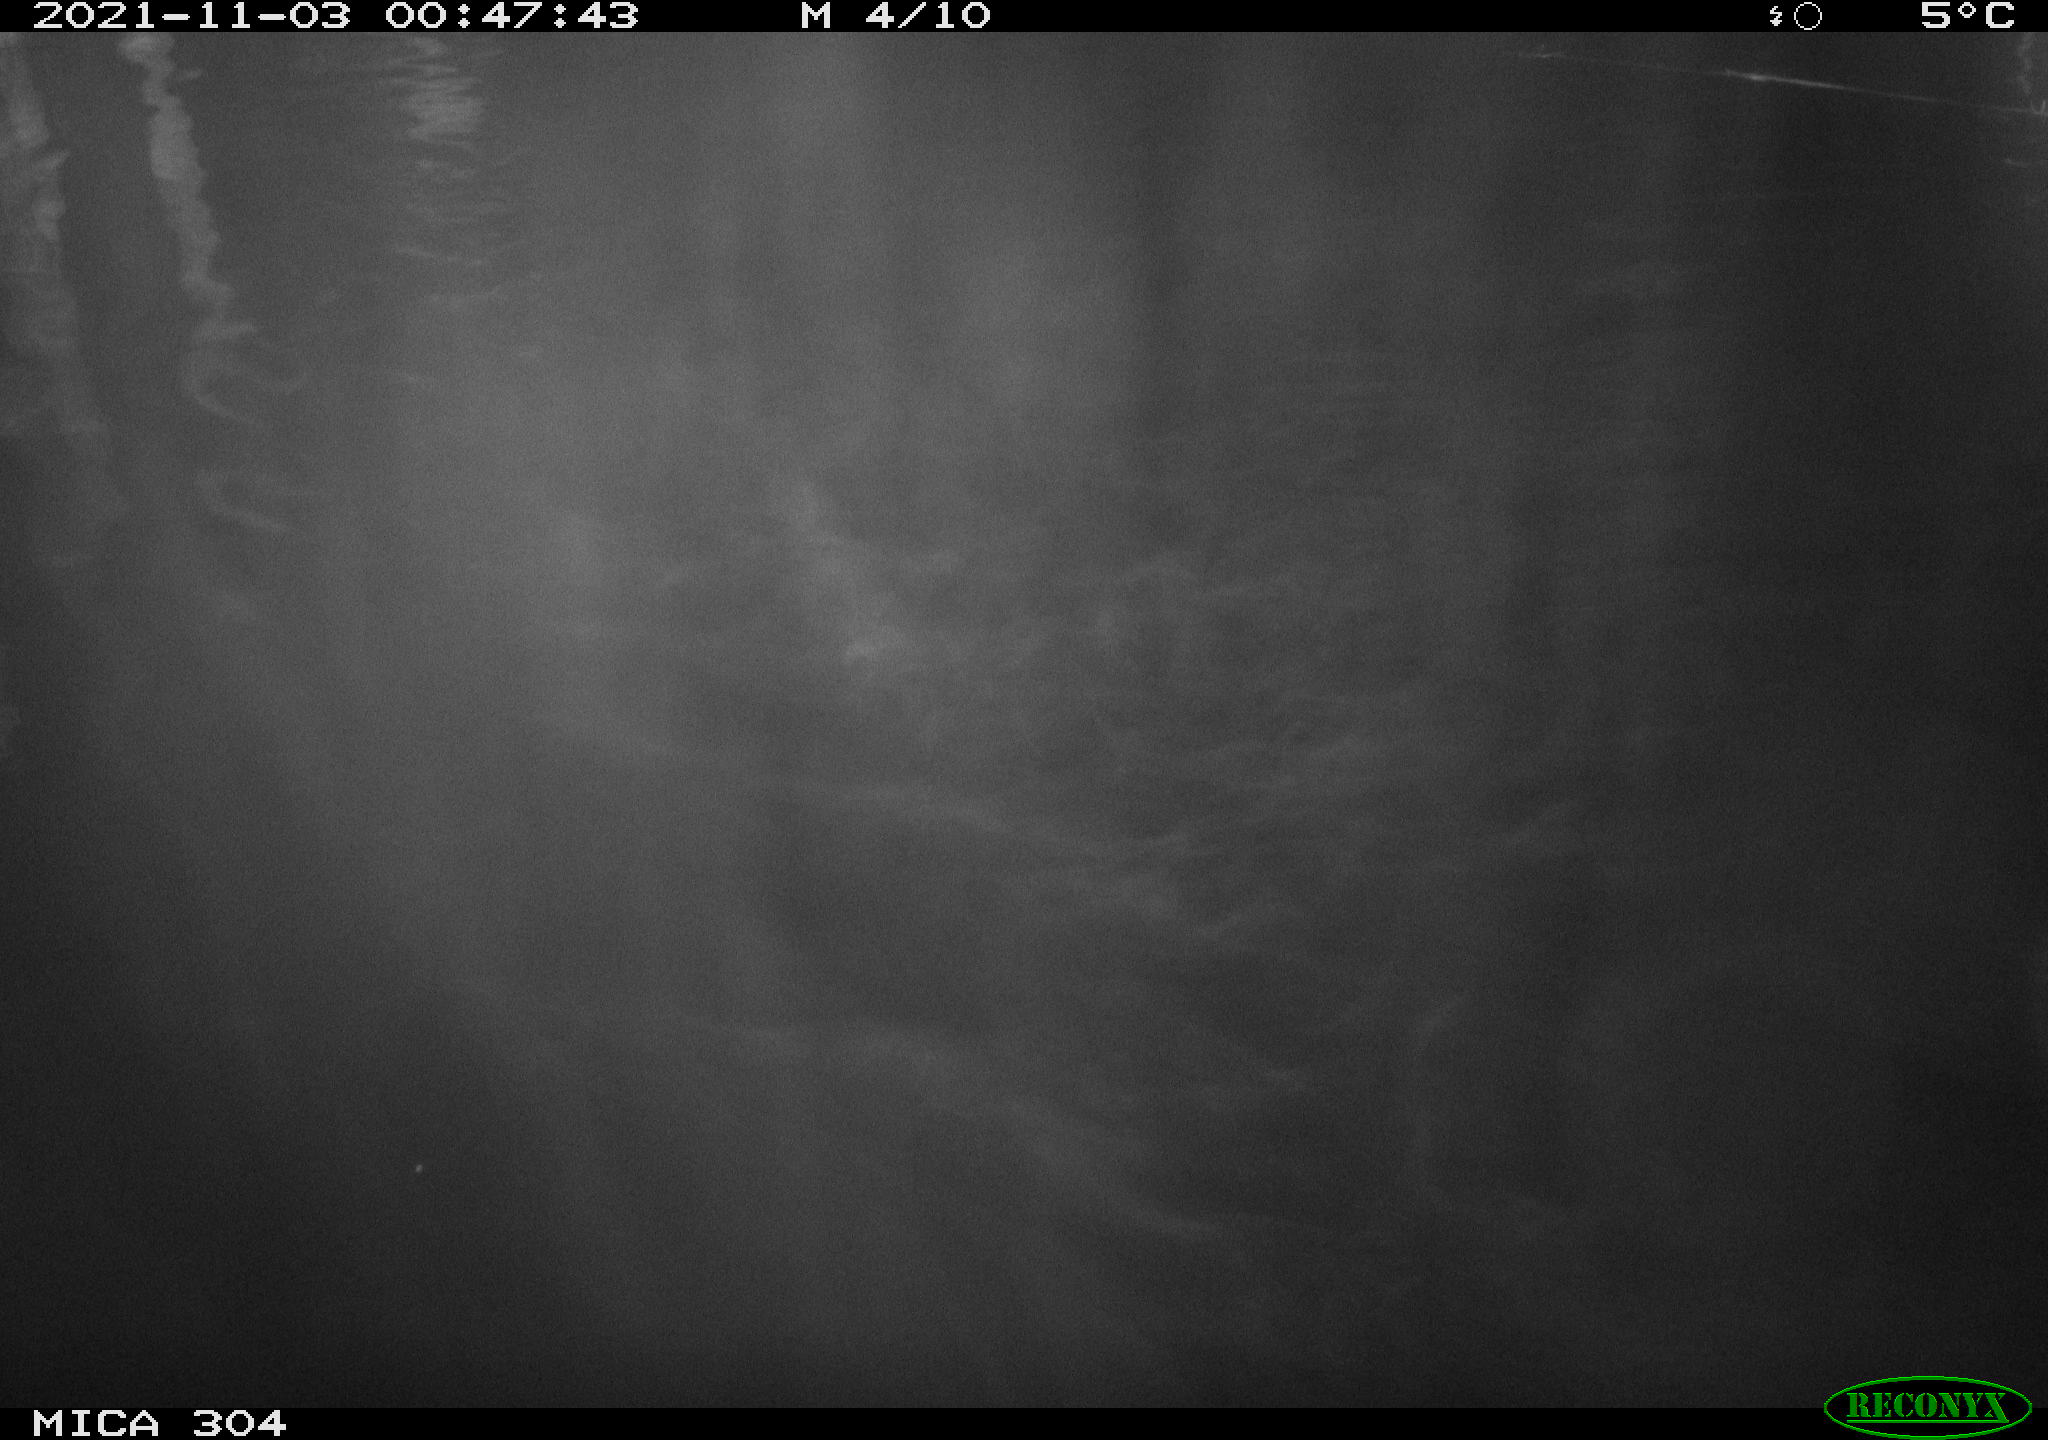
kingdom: Animalia
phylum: Chordata
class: Mammalia
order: Rodentia
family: Cricetidae
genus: Ondatra
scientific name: Ondatra zibethicus
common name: Muskrat
